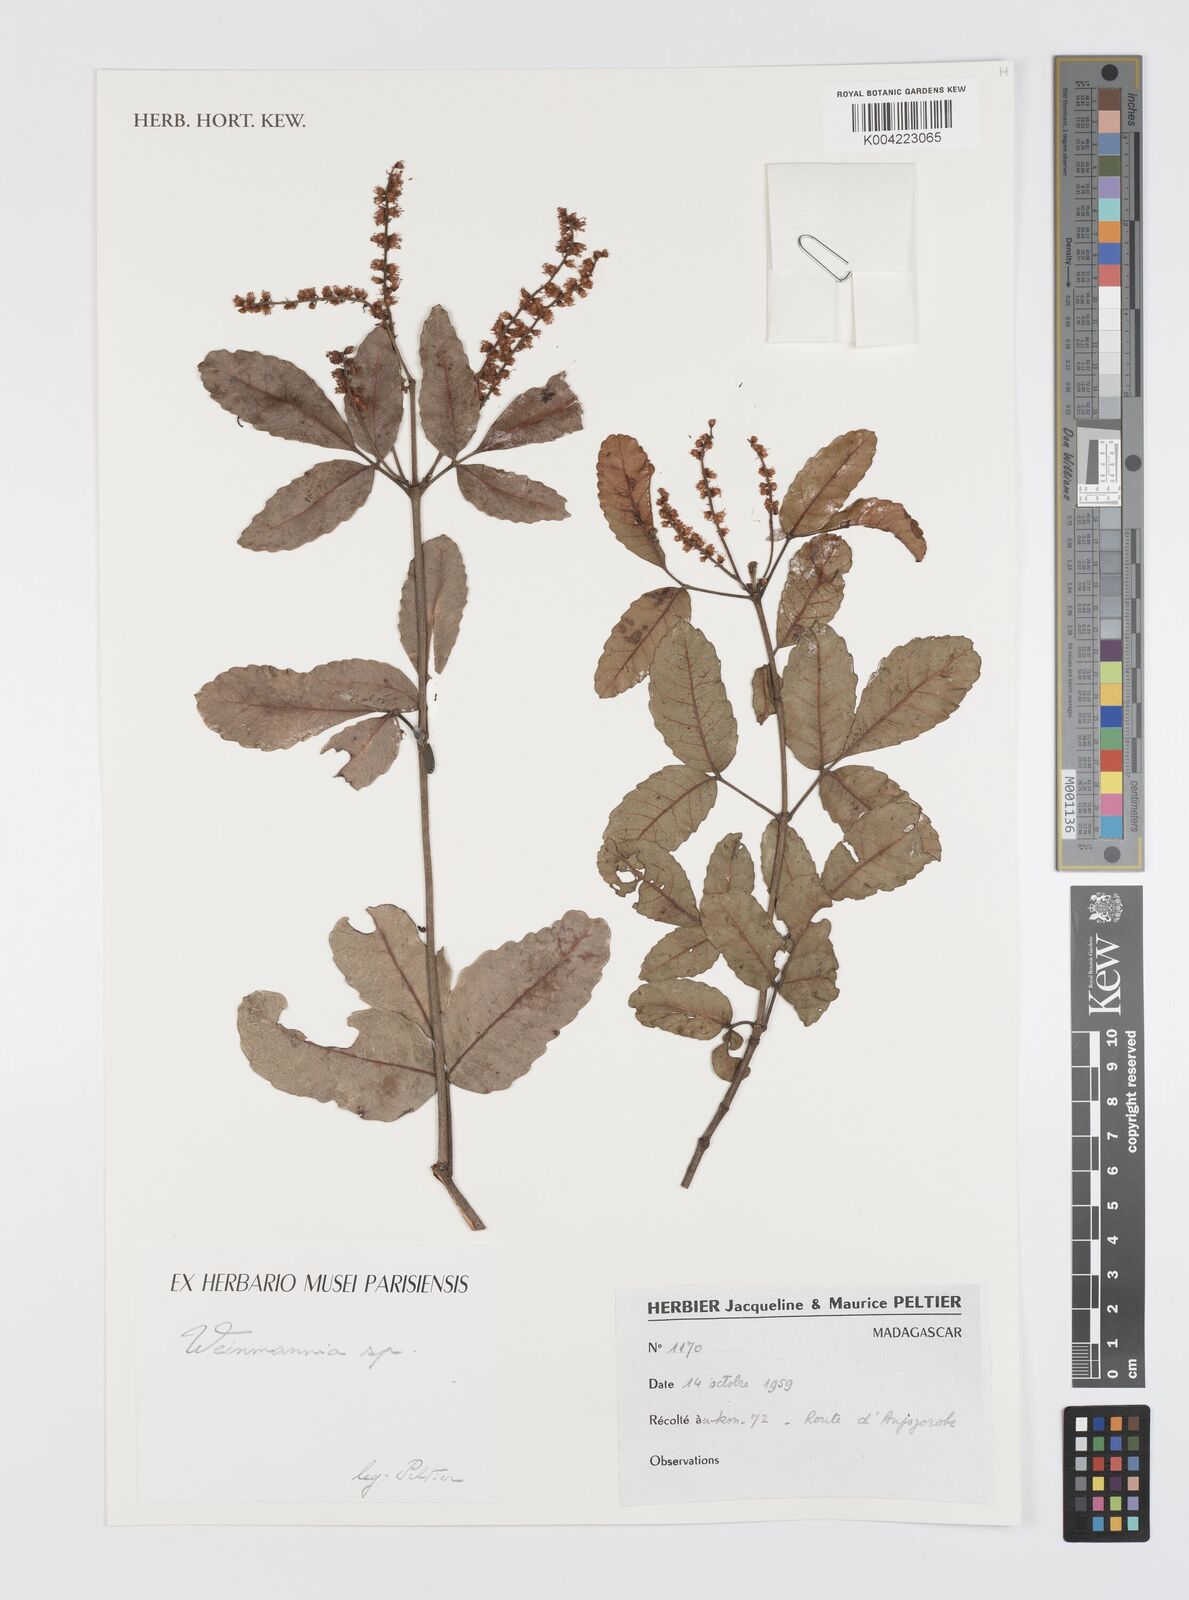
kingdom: Plantae
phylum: Tracheophyta
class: Magnoliopsida
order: Oxalidales
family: Cunoniaceae
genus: Weinmannia
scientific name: Weinmannia
